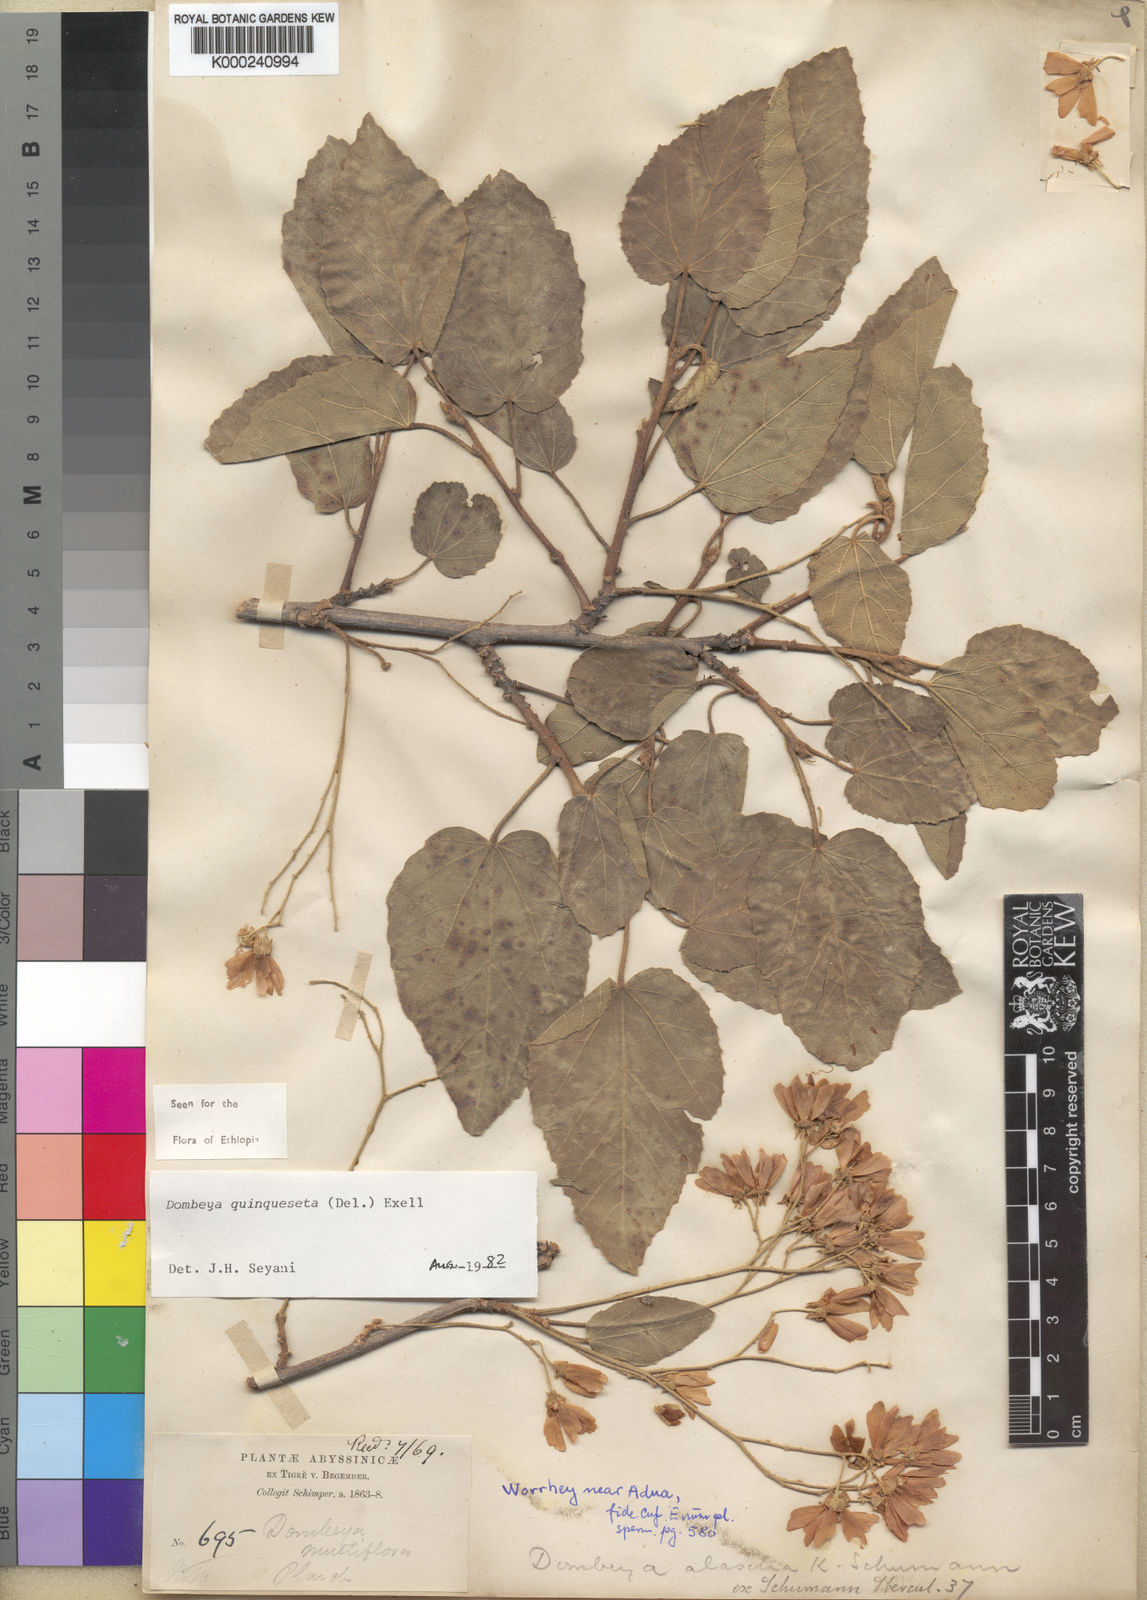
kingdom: Plantae
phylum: Tracheophyta
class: Magnoliopsida
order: Malvales
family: Malvaceae
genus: Dombeya
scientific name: Dombeya quinqueseta
